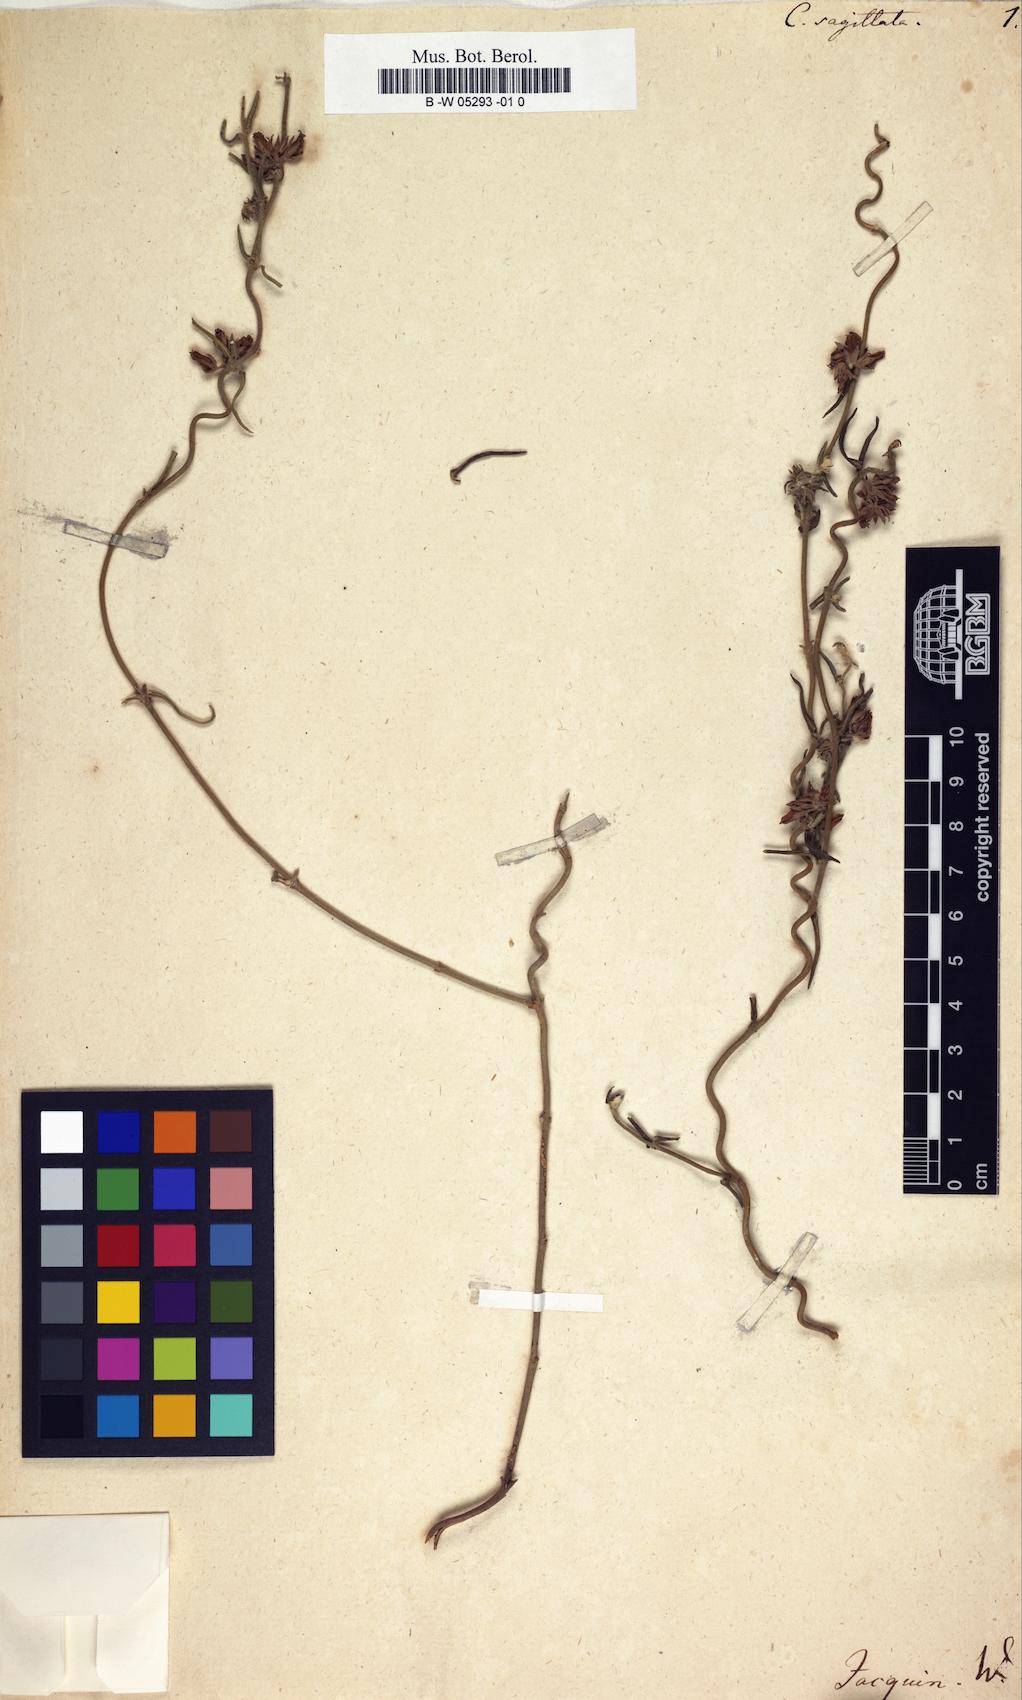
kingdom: Plantae
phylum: Tracheophyta
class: Magnoliopsida
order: Gentianales
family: Apocynaceae
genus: Microloma
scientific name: Microloma sagittatum
